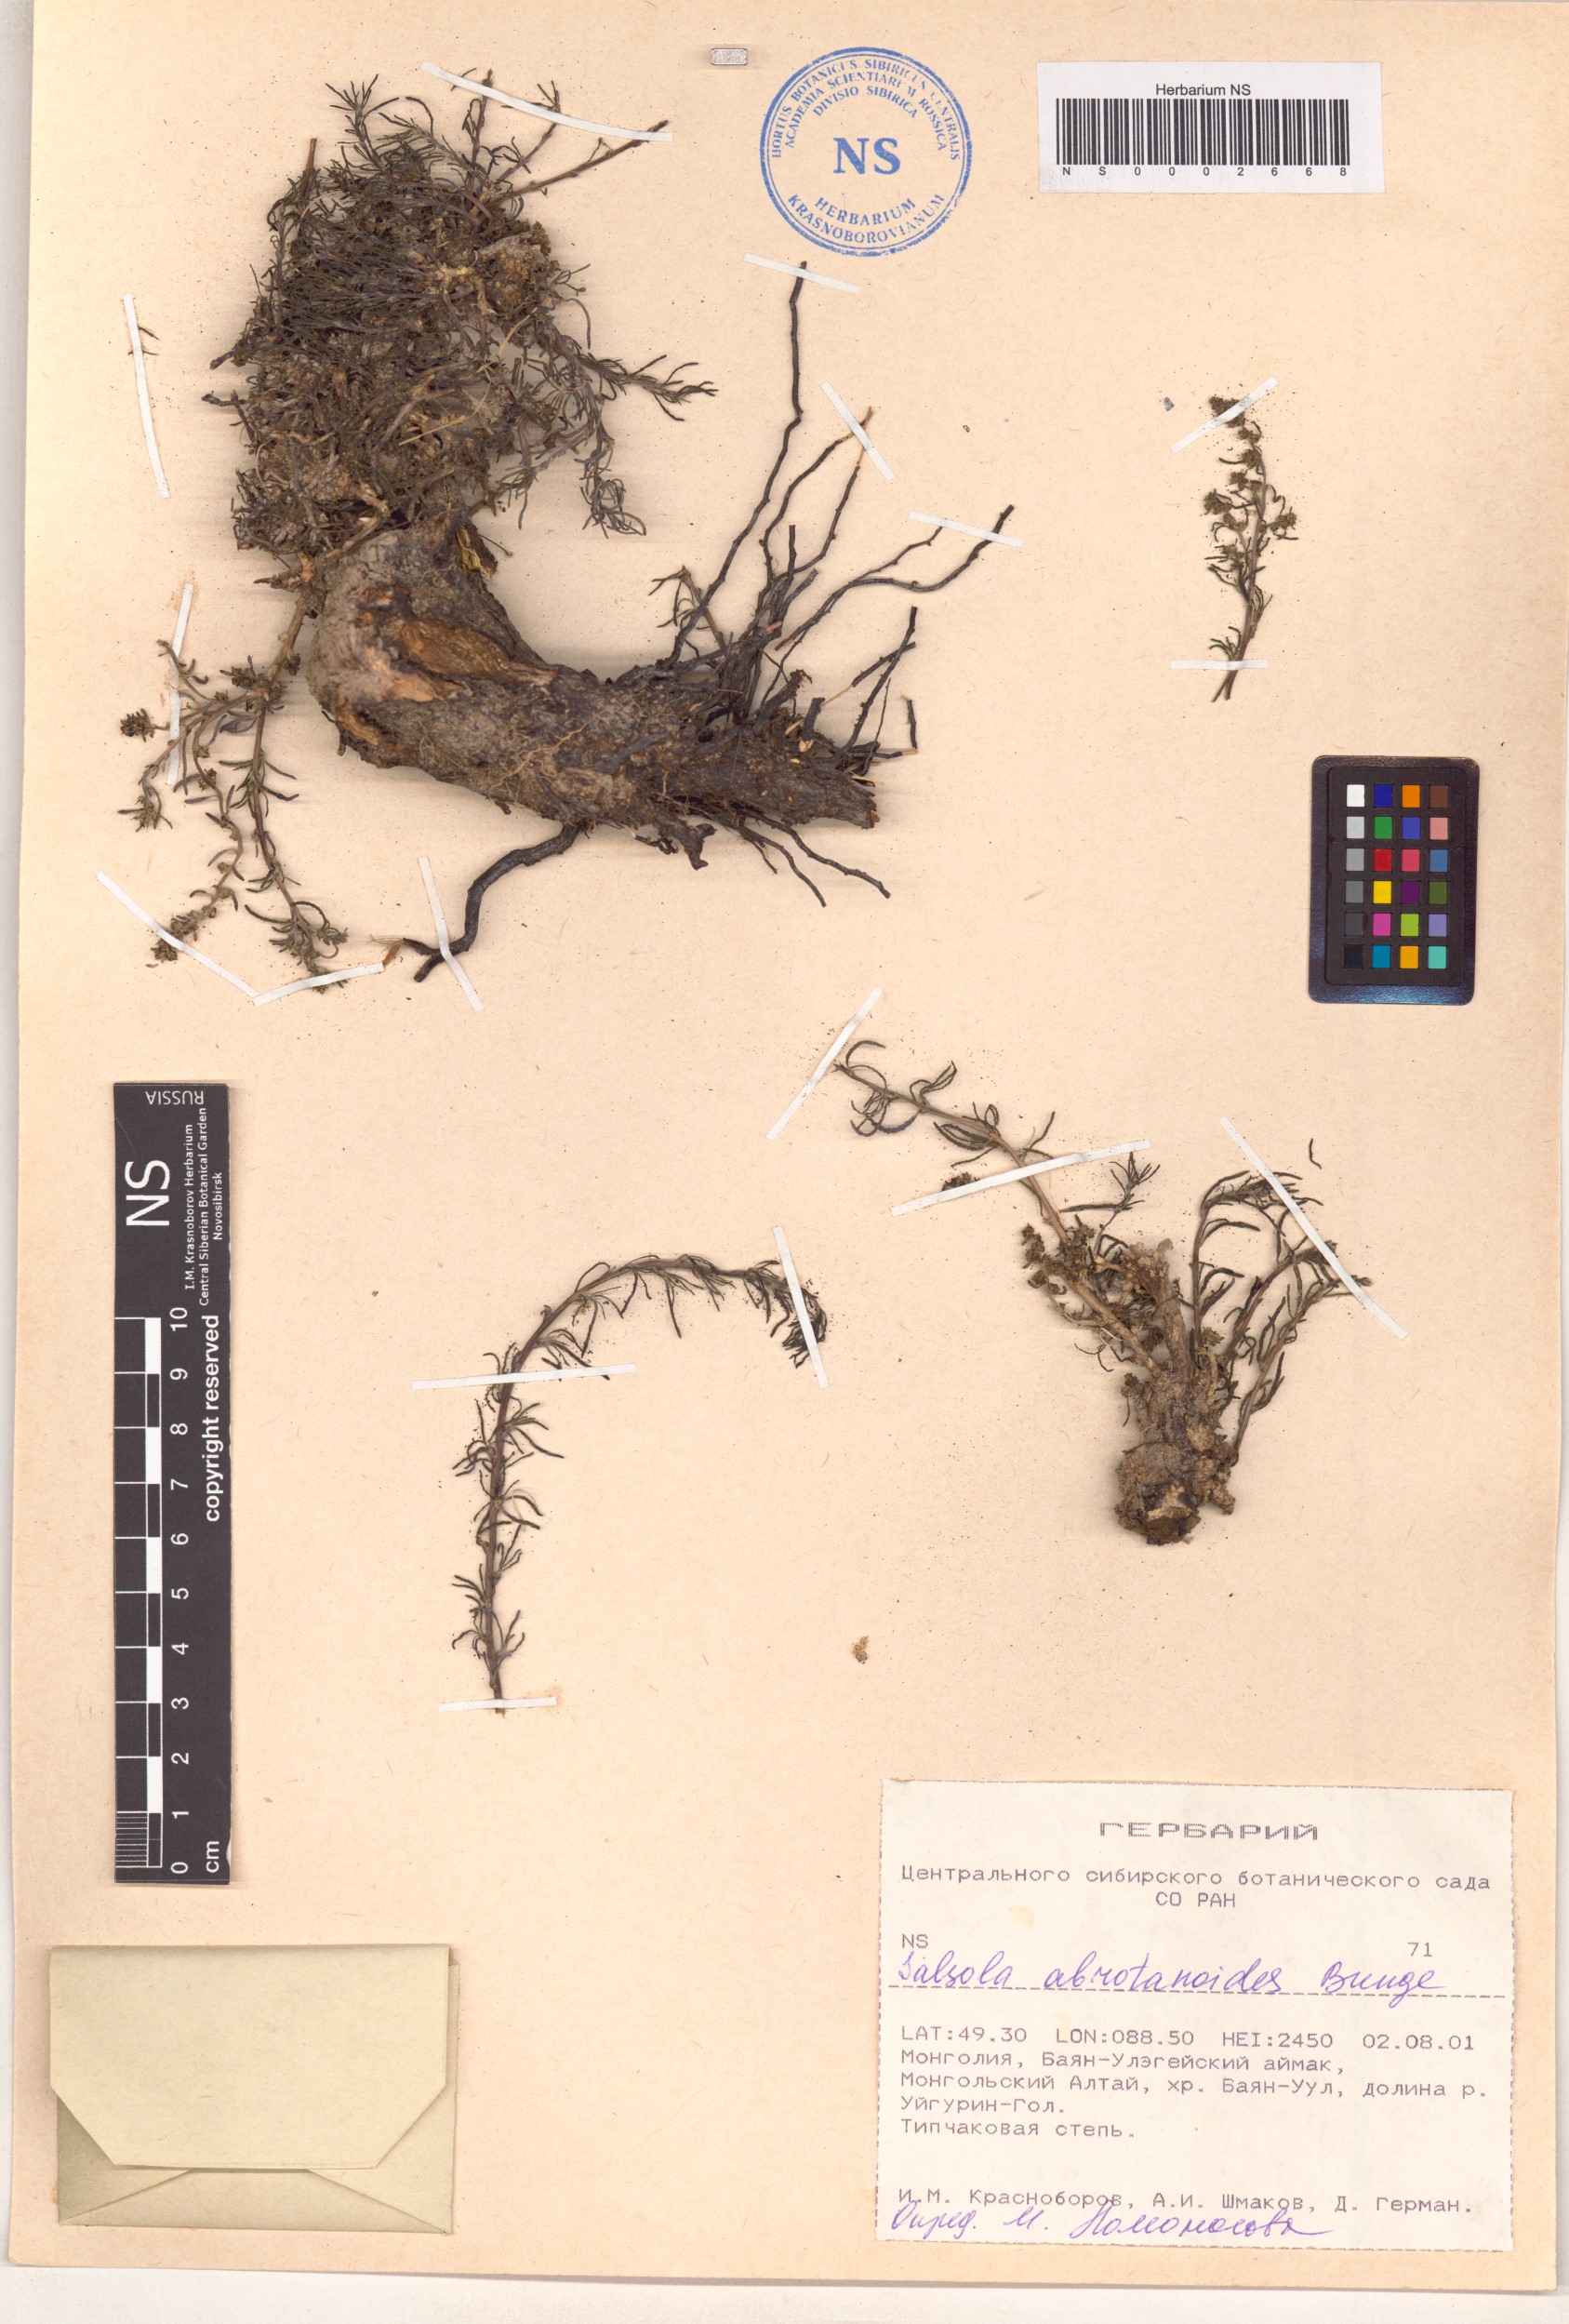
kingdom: Plantae
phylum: Tracheophyta
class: Magnoliopsida
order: Caryophyllales
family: Amaranthaceae
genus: Oreosalsola
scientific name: Oreosalsola abrotanoides
